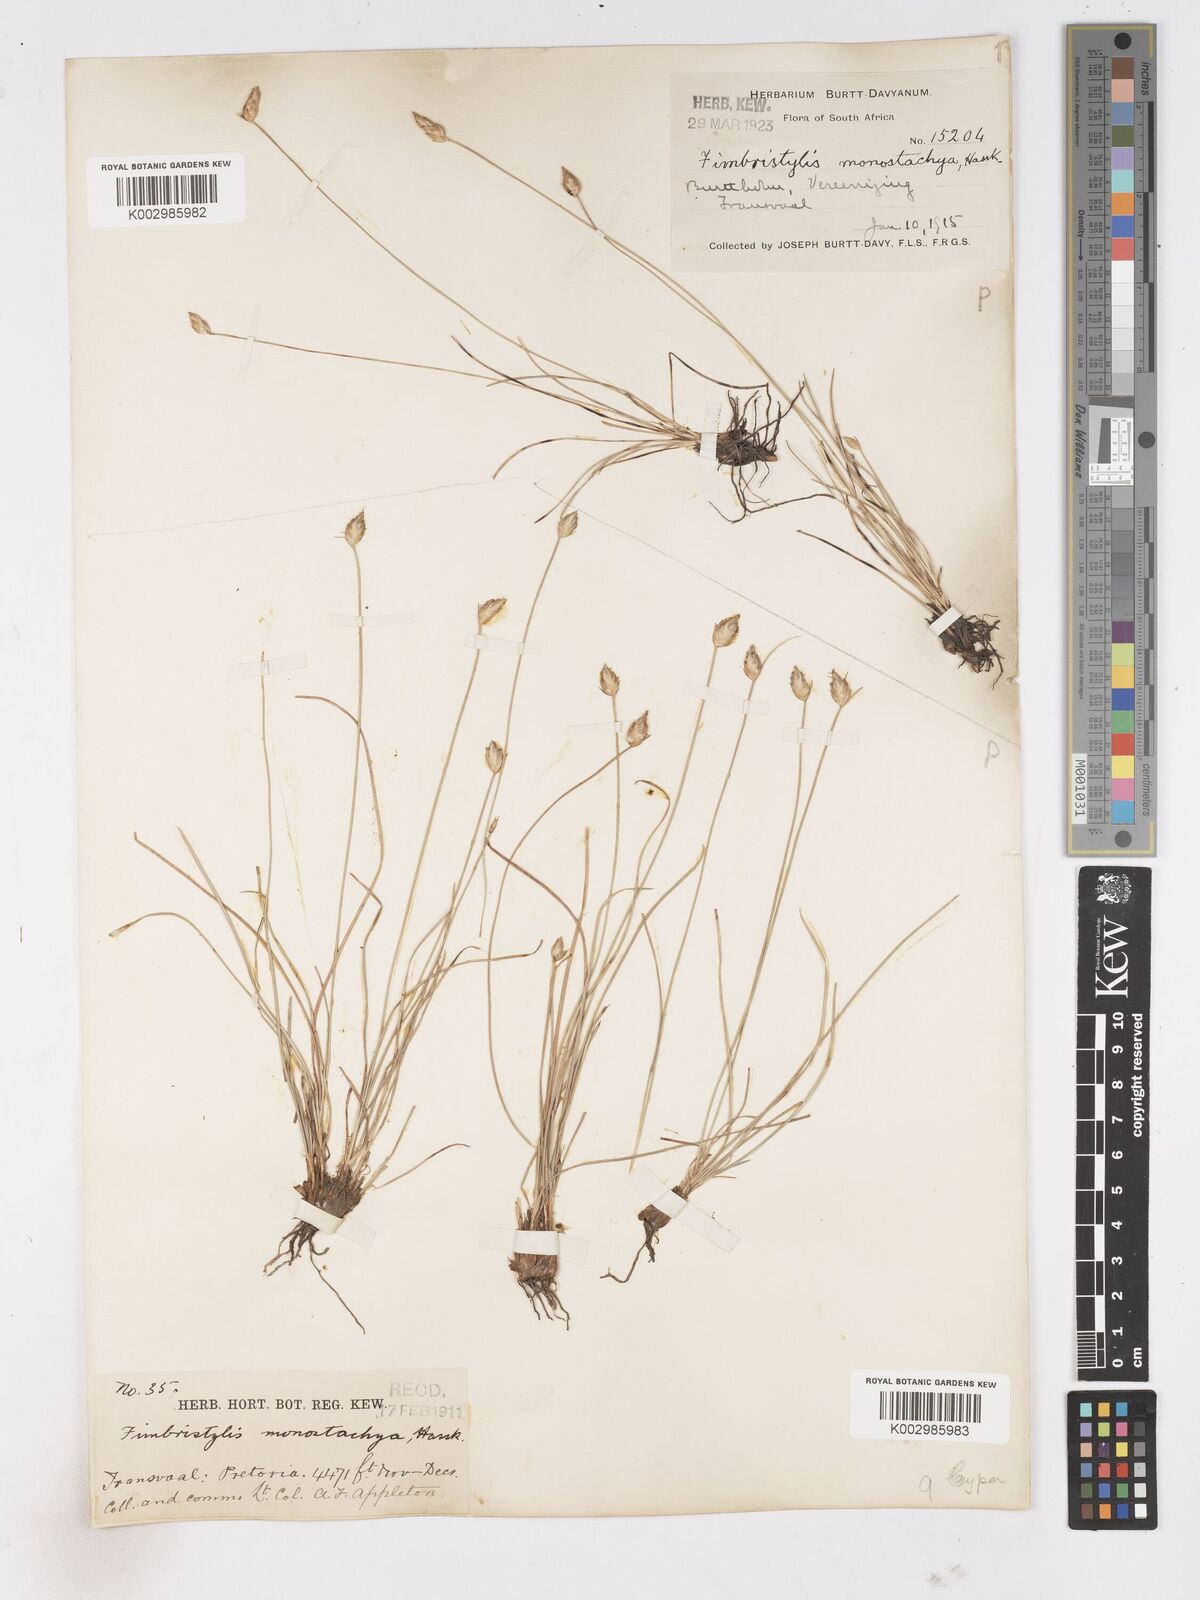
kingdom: Plantae
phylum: Tracheophyta
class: Liliopsida
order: Poales
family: Cyperaceae
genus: Abildgaardia
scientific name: Abildgaardia ovata
